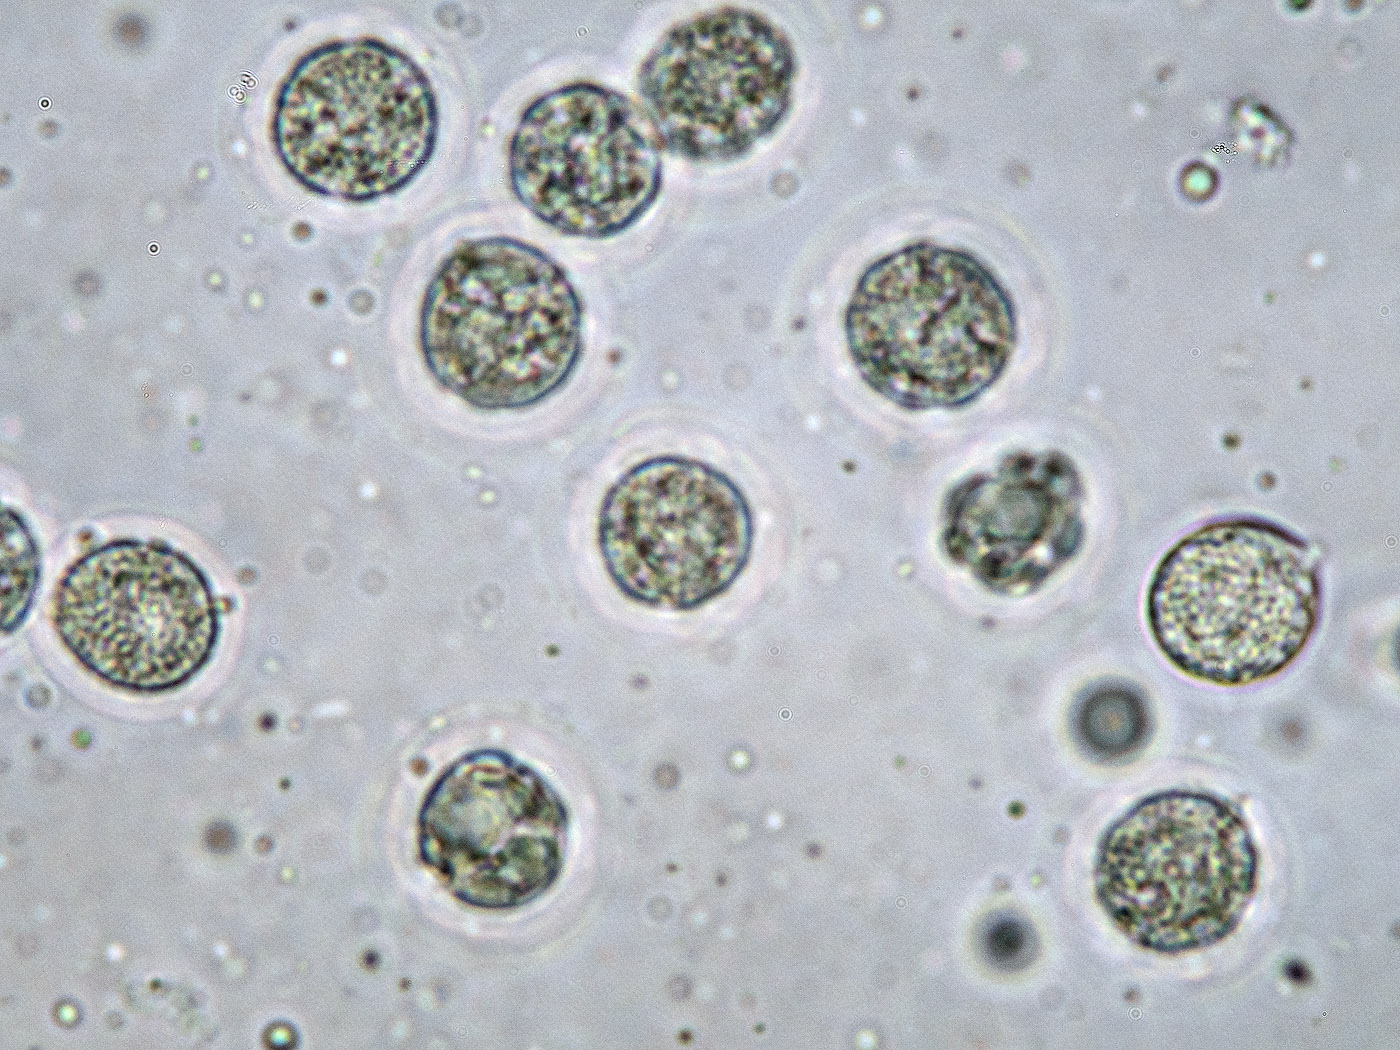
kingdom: Fungi
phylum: Basidiomycota
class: Agaricomycetes
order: Cantharellales
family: Hydnaceae
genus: Hydnum
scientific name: Hydnum repandum
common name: almindelig pigsvamp
